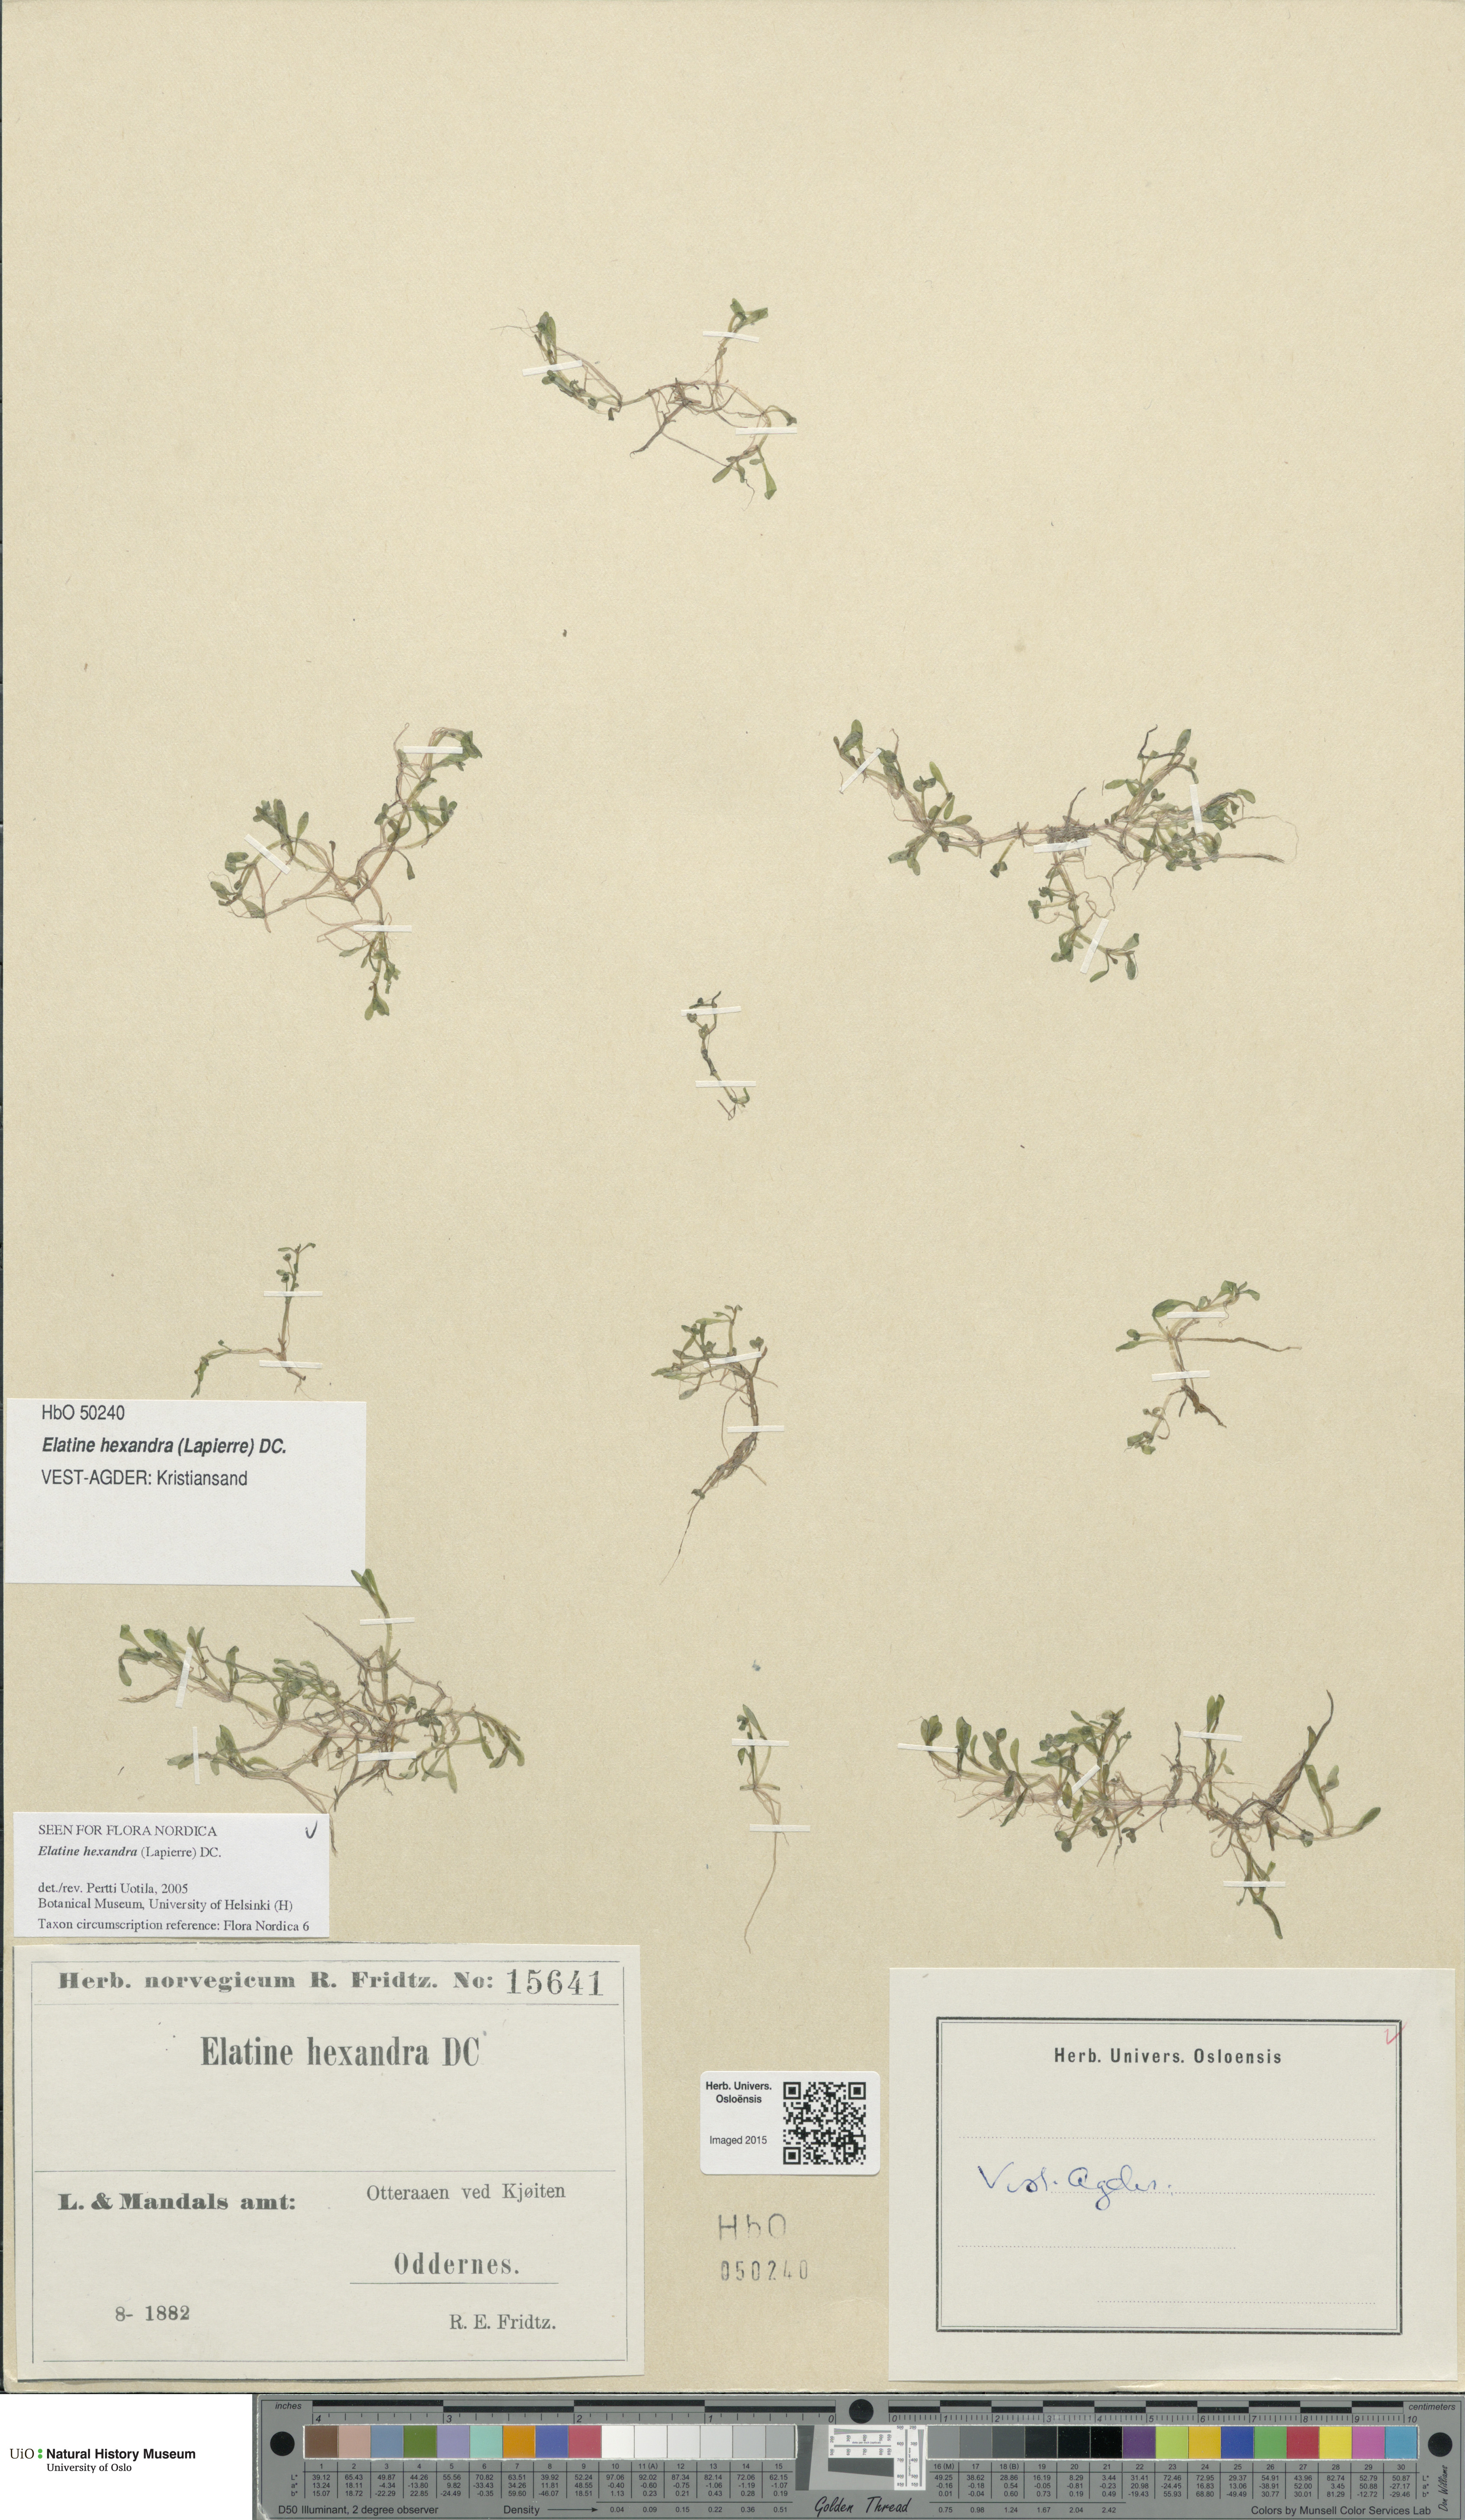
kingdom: Plantae
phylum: Tracheophyta
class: Magnoliopsida
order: Malpighiales
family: Elatinaceae
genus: Elatine
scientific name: Elatine hexandra
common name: Six-stamened waterwort
